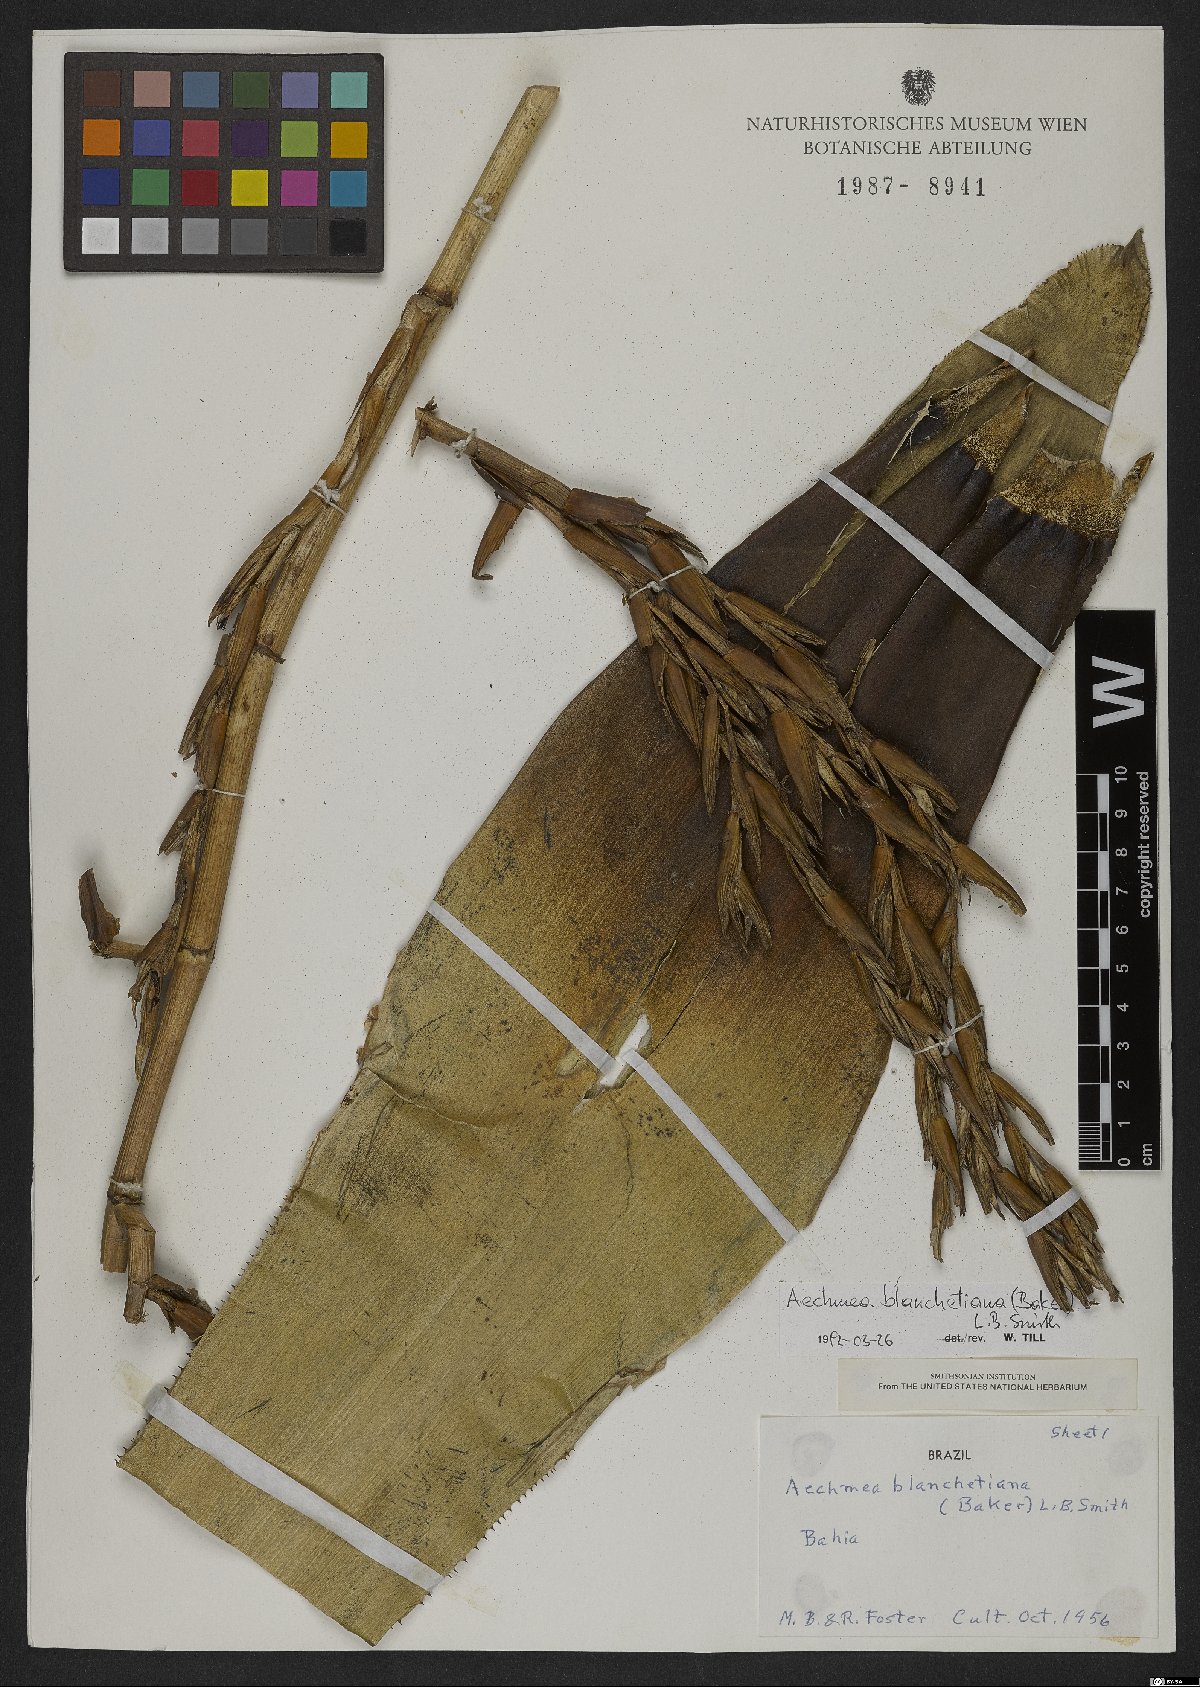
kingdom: Plantae
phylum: Tracheophyta
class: Liliopsida
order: Poales
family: Bromeliaceae
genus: Aechmea
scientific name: Aechmea blanchetiana
